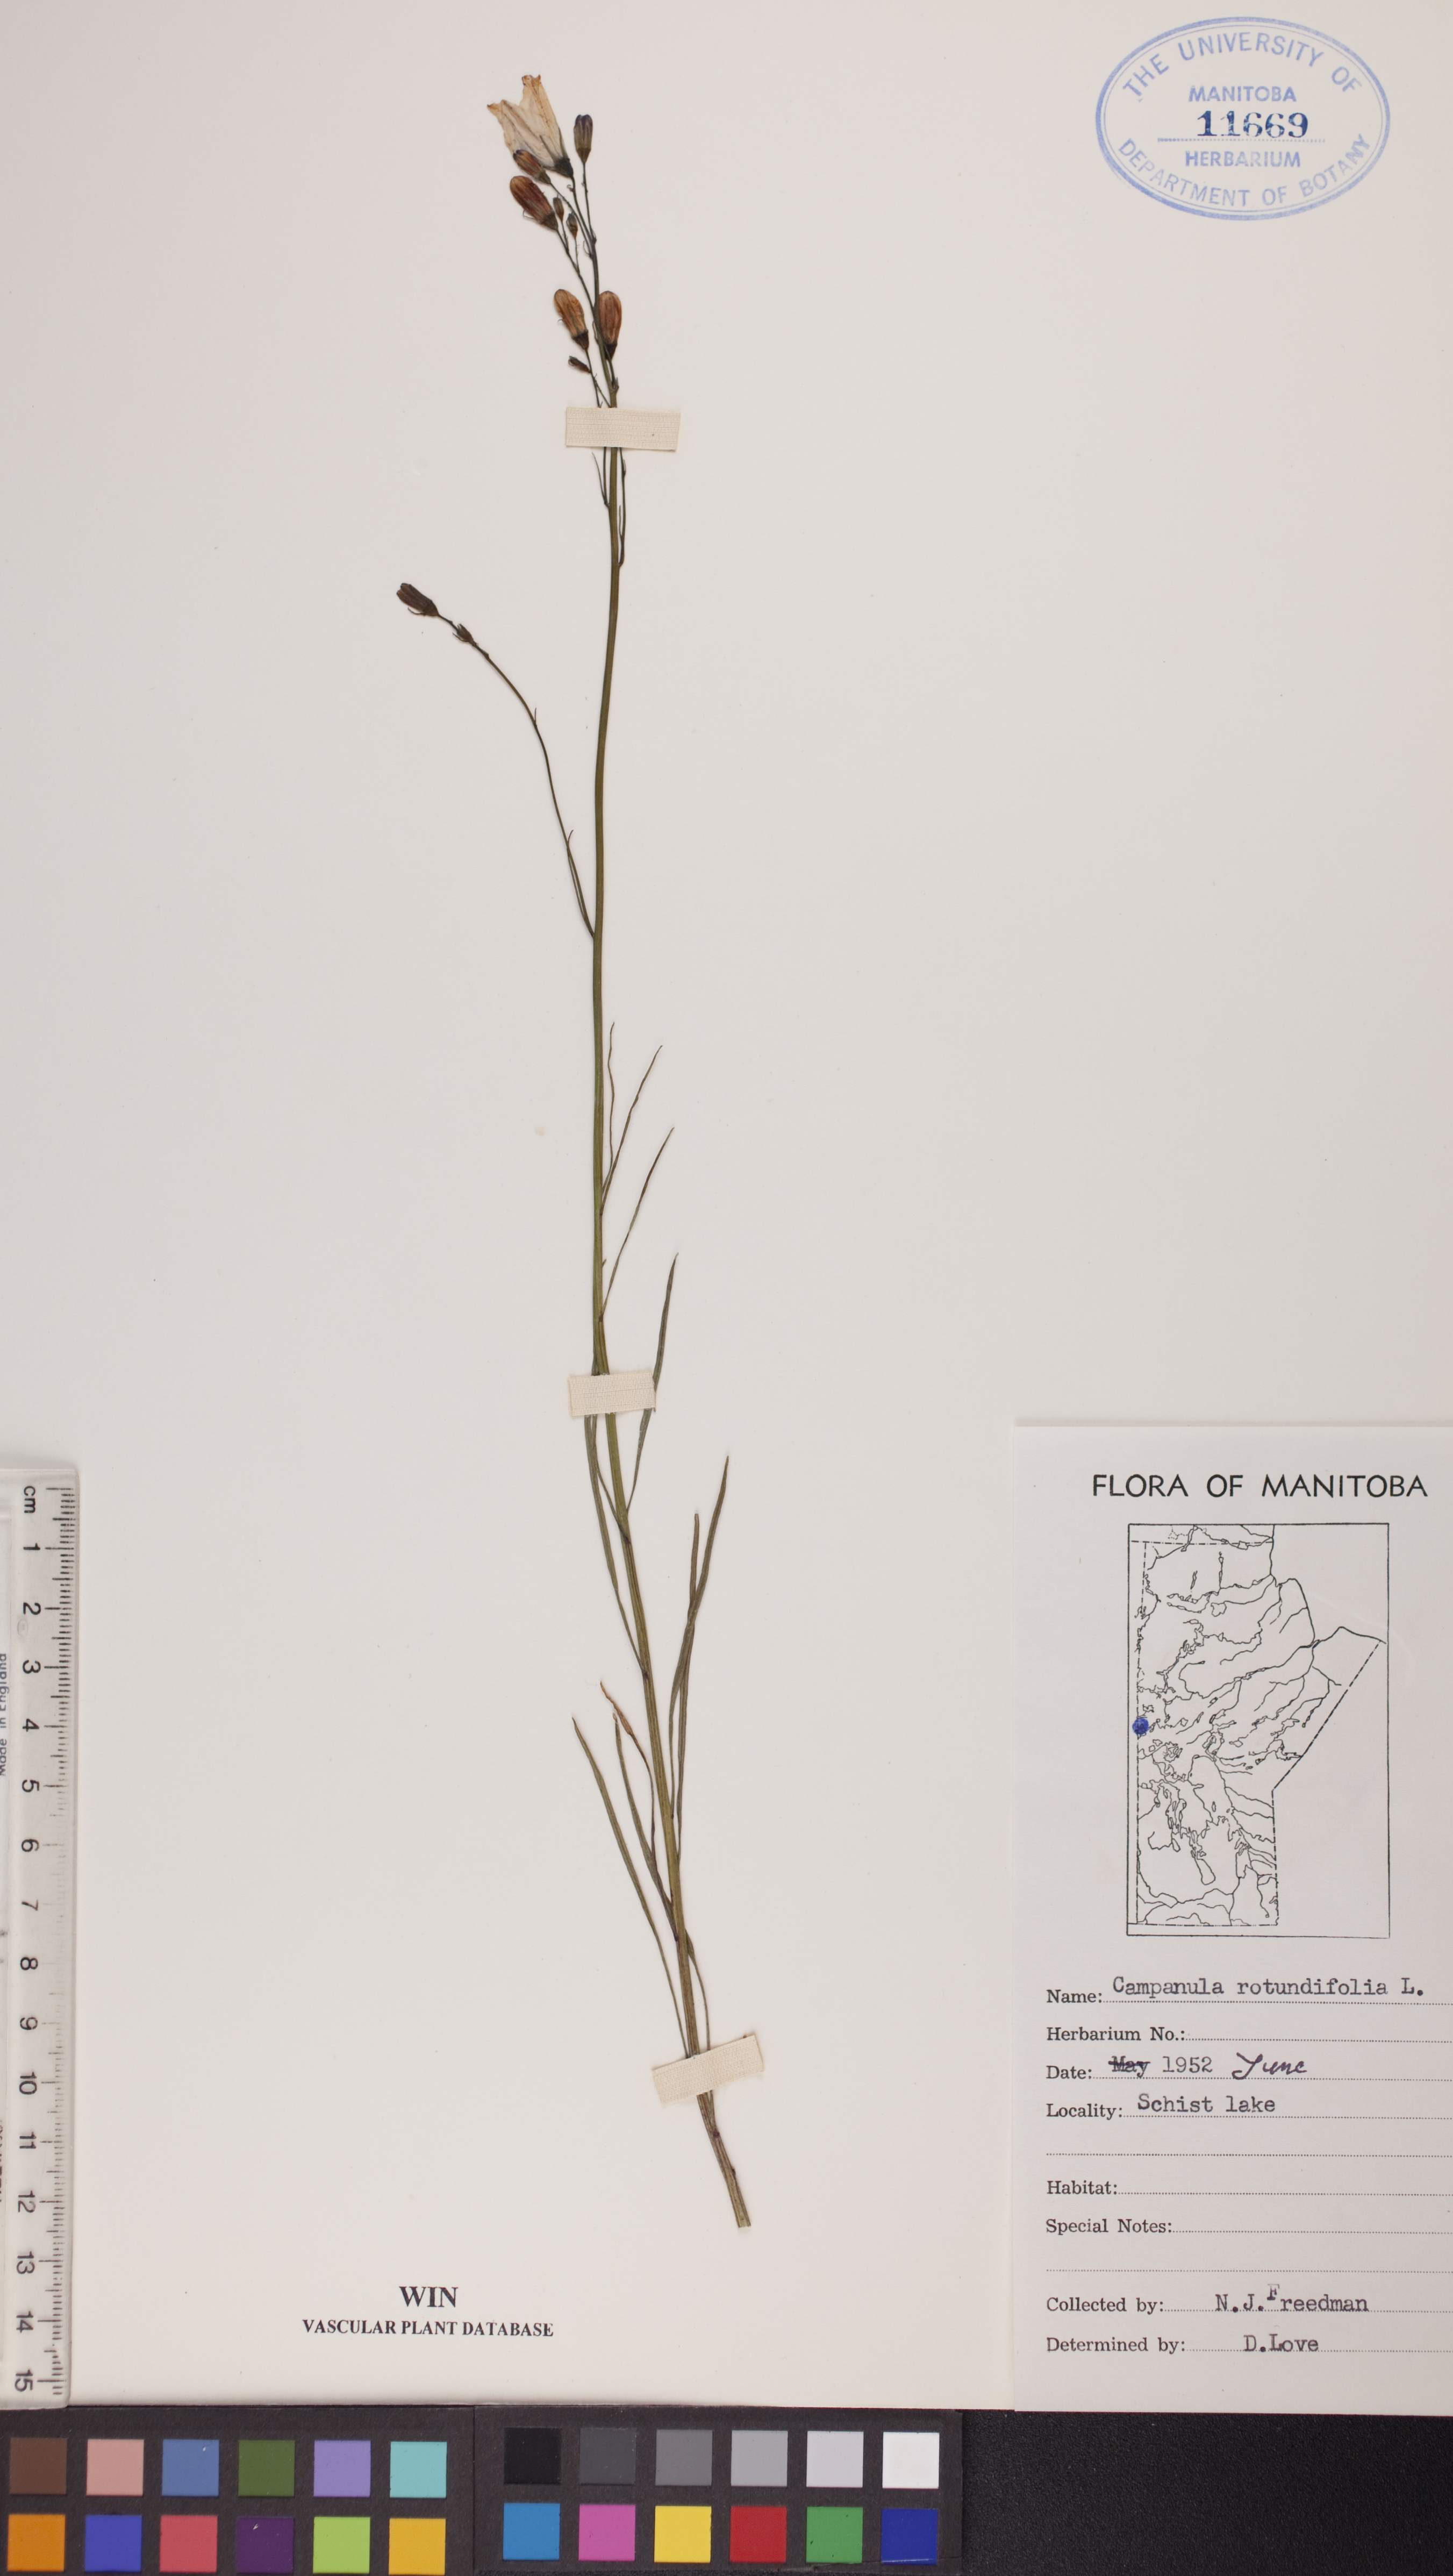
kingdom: Plantae
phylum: Tracheophyta
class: Magnoliopsida
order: Asterales
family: Campanulaceae
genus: Campanula
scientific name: Campanula rotundifolia
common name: Harebell
